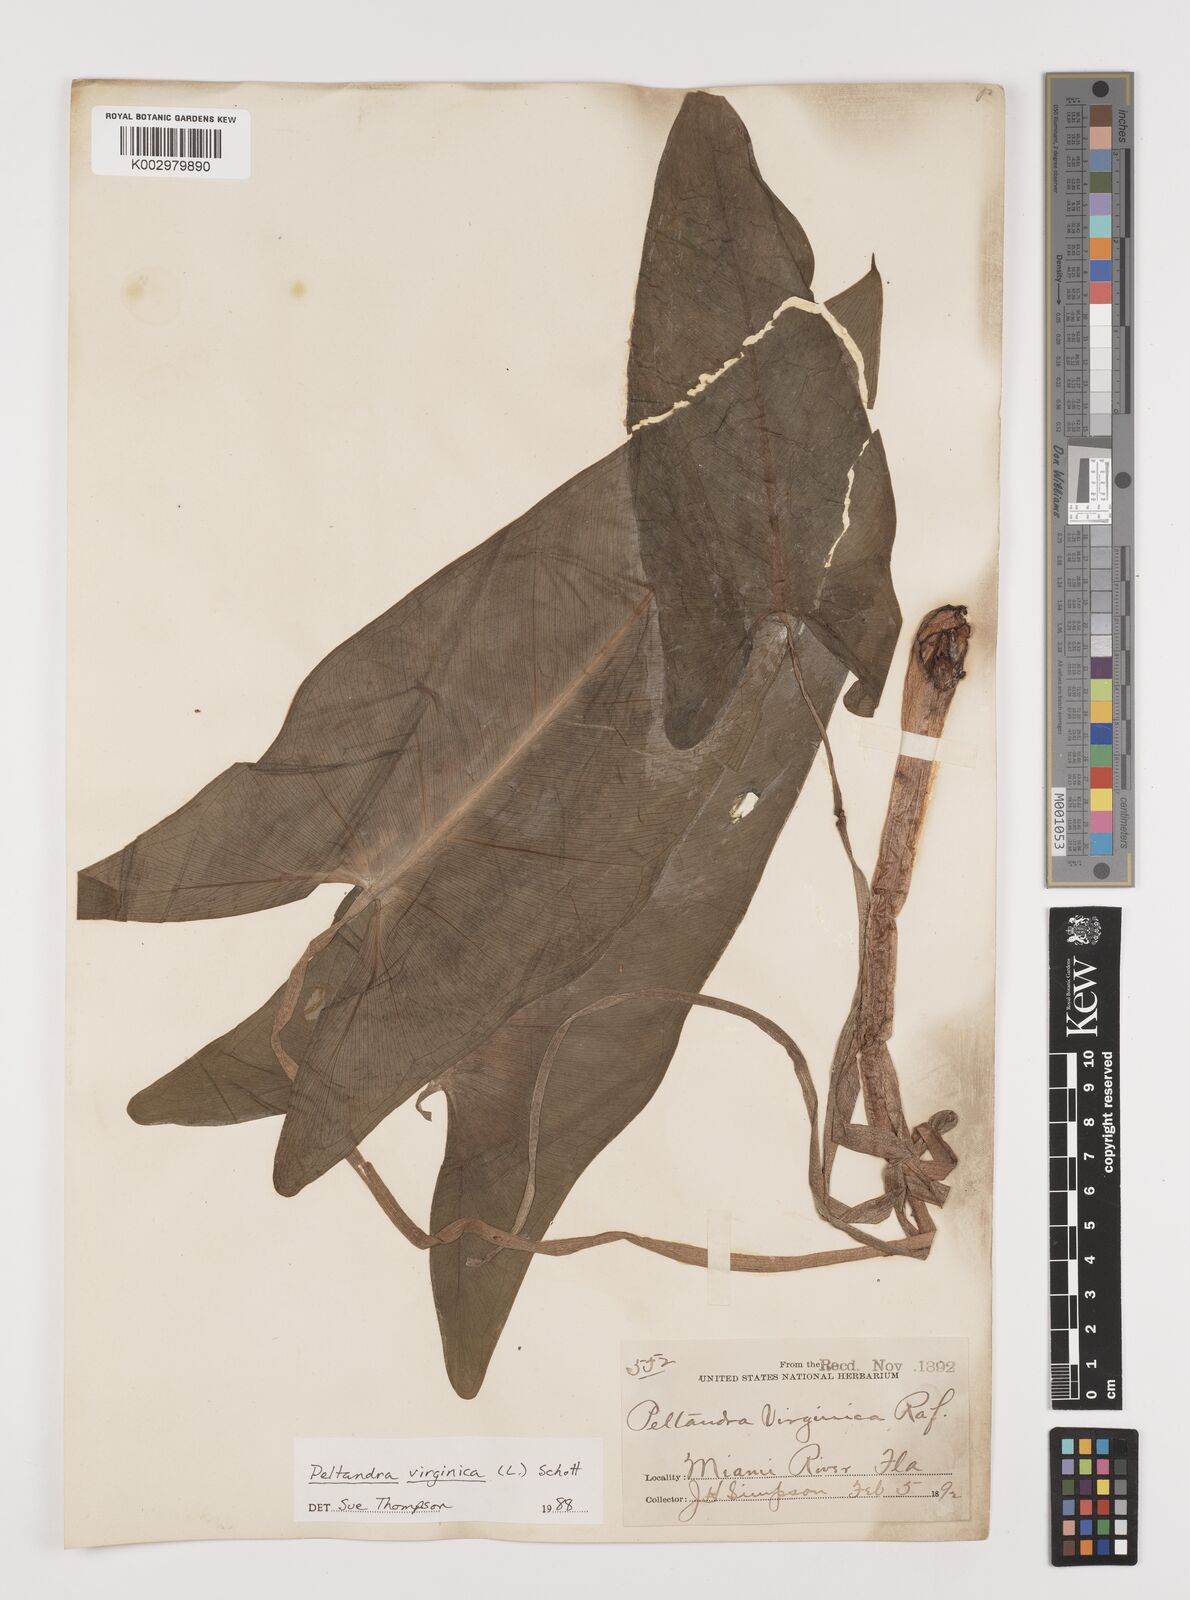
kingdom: Plantae
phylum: Tracheophyta
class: Liliopsida
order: Alismatales
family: Araceae
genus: Peltandra
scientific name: Peltandra virginica
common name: Arrow arum
